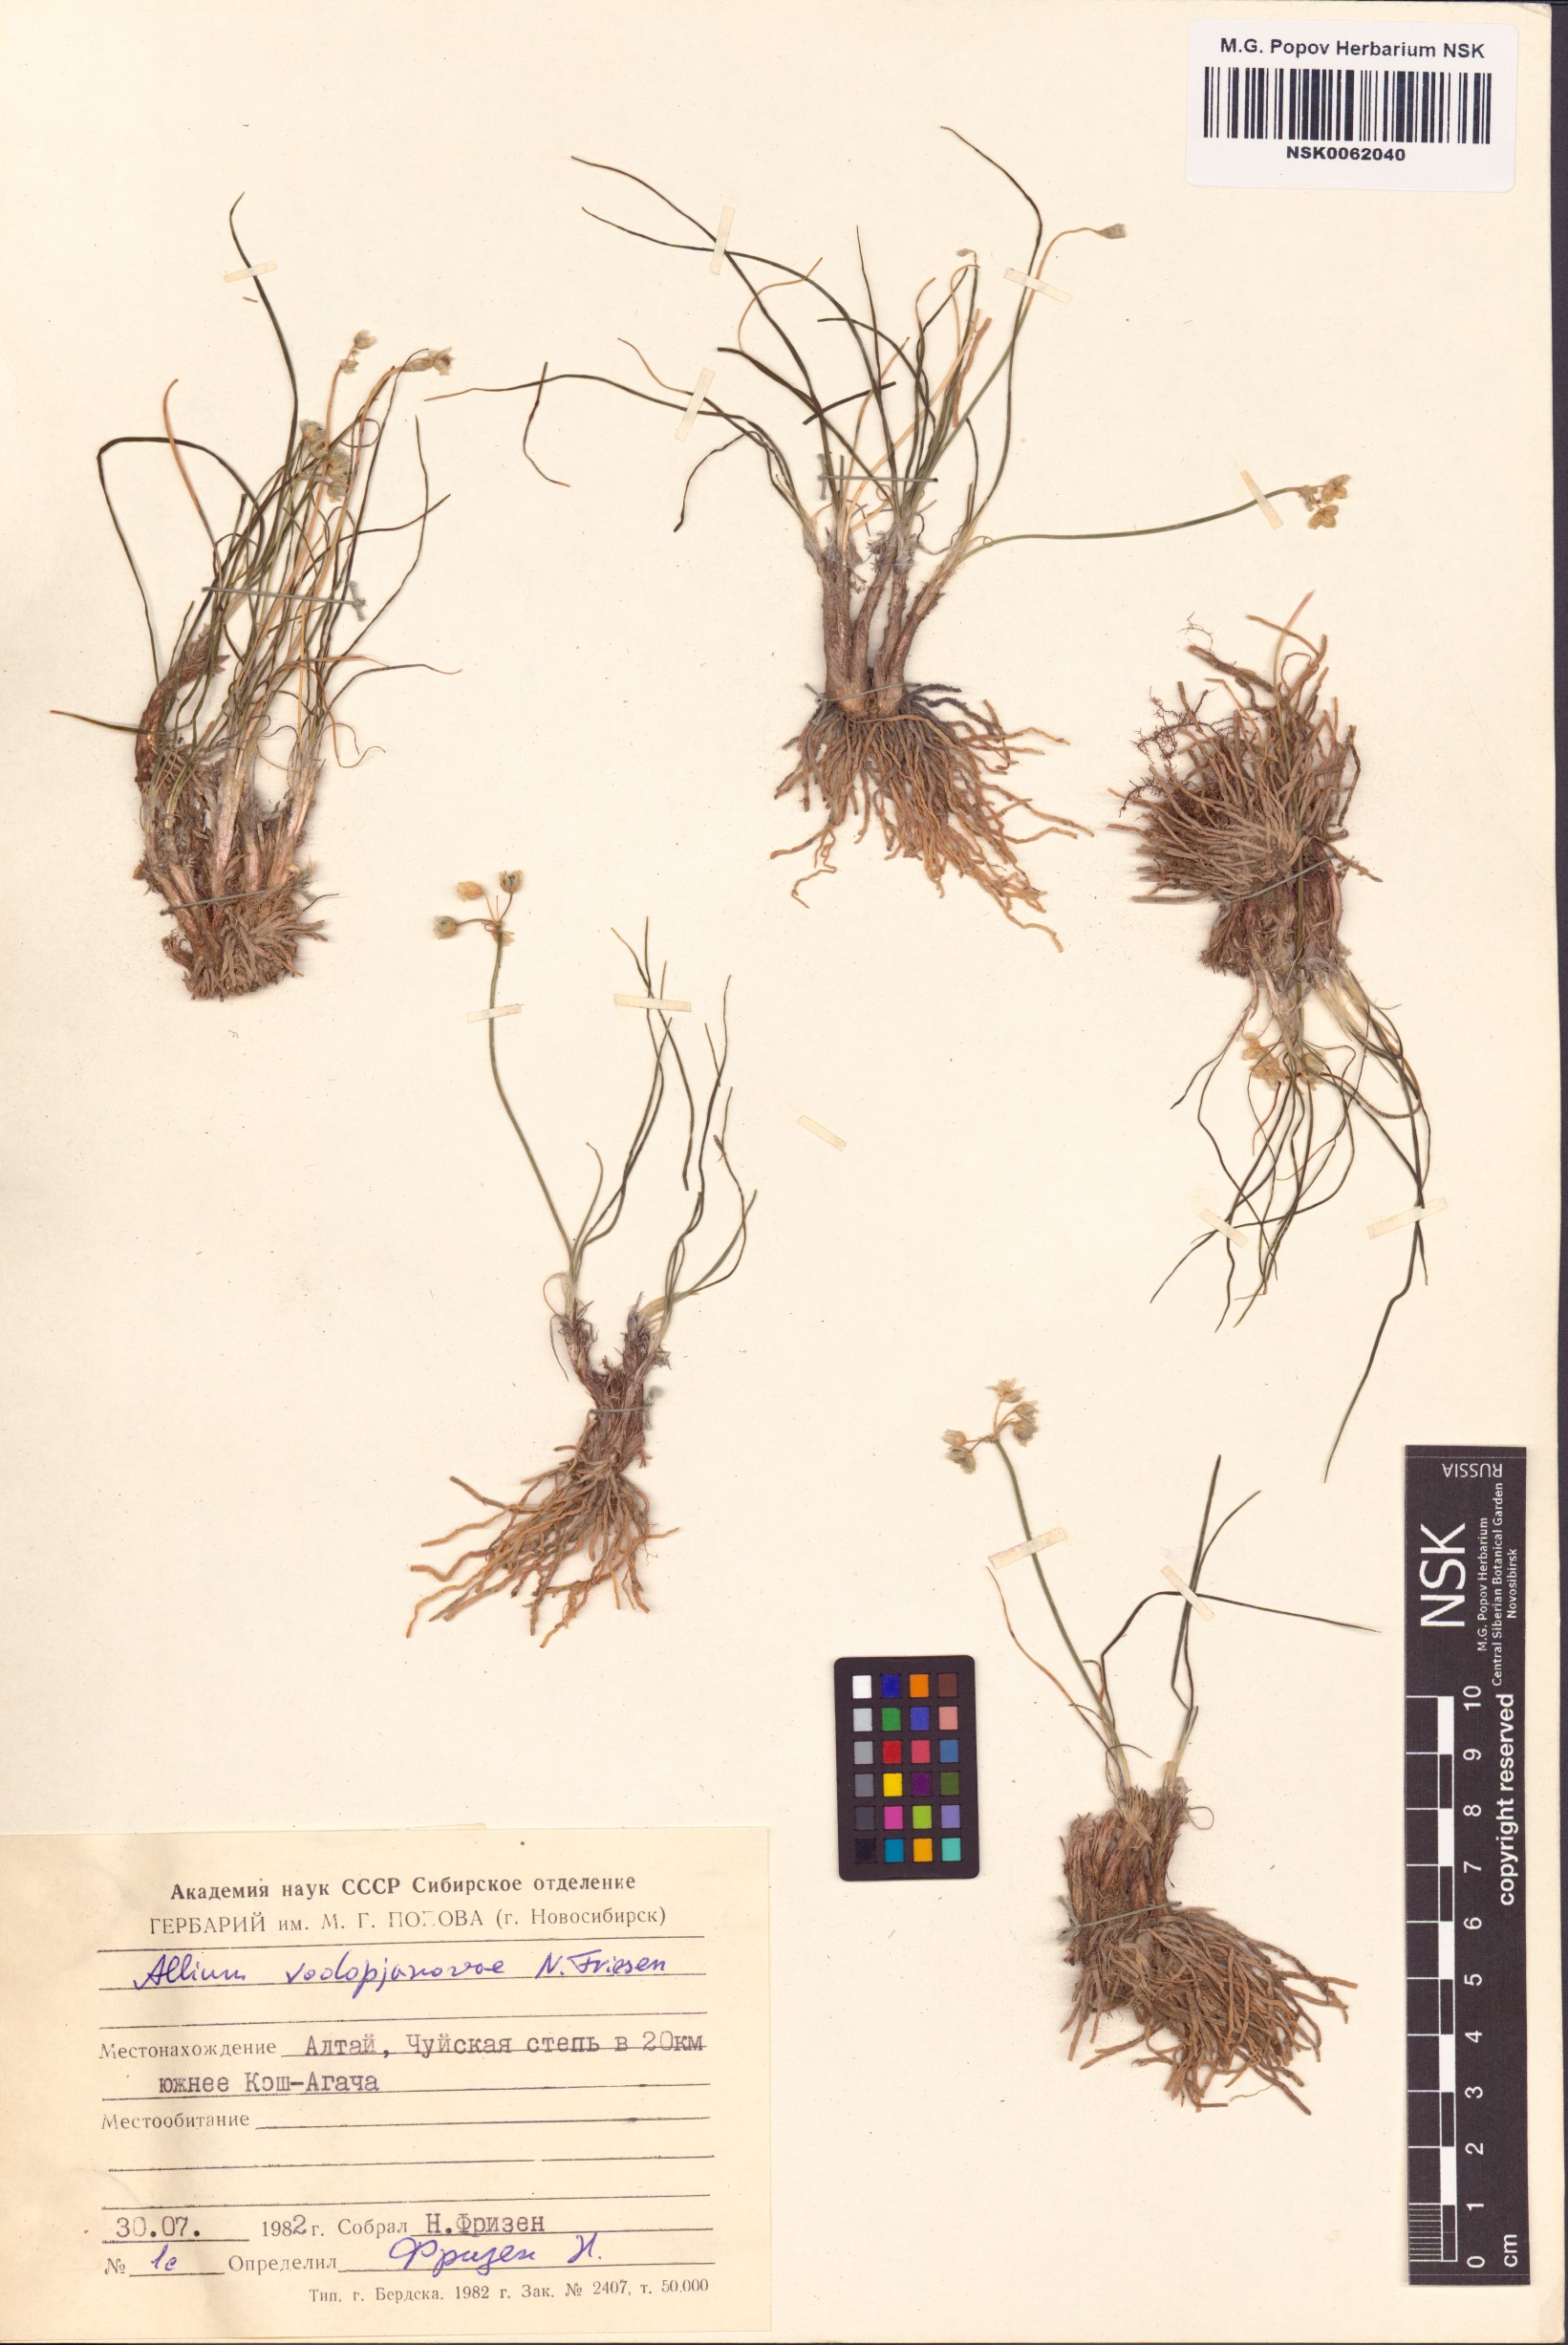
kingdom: Plantae
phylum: Tracheophyta
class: Liliopsida
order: Asparagales
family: Amaryllidaceae
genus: Allium
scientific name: Allium vodopjanovae
